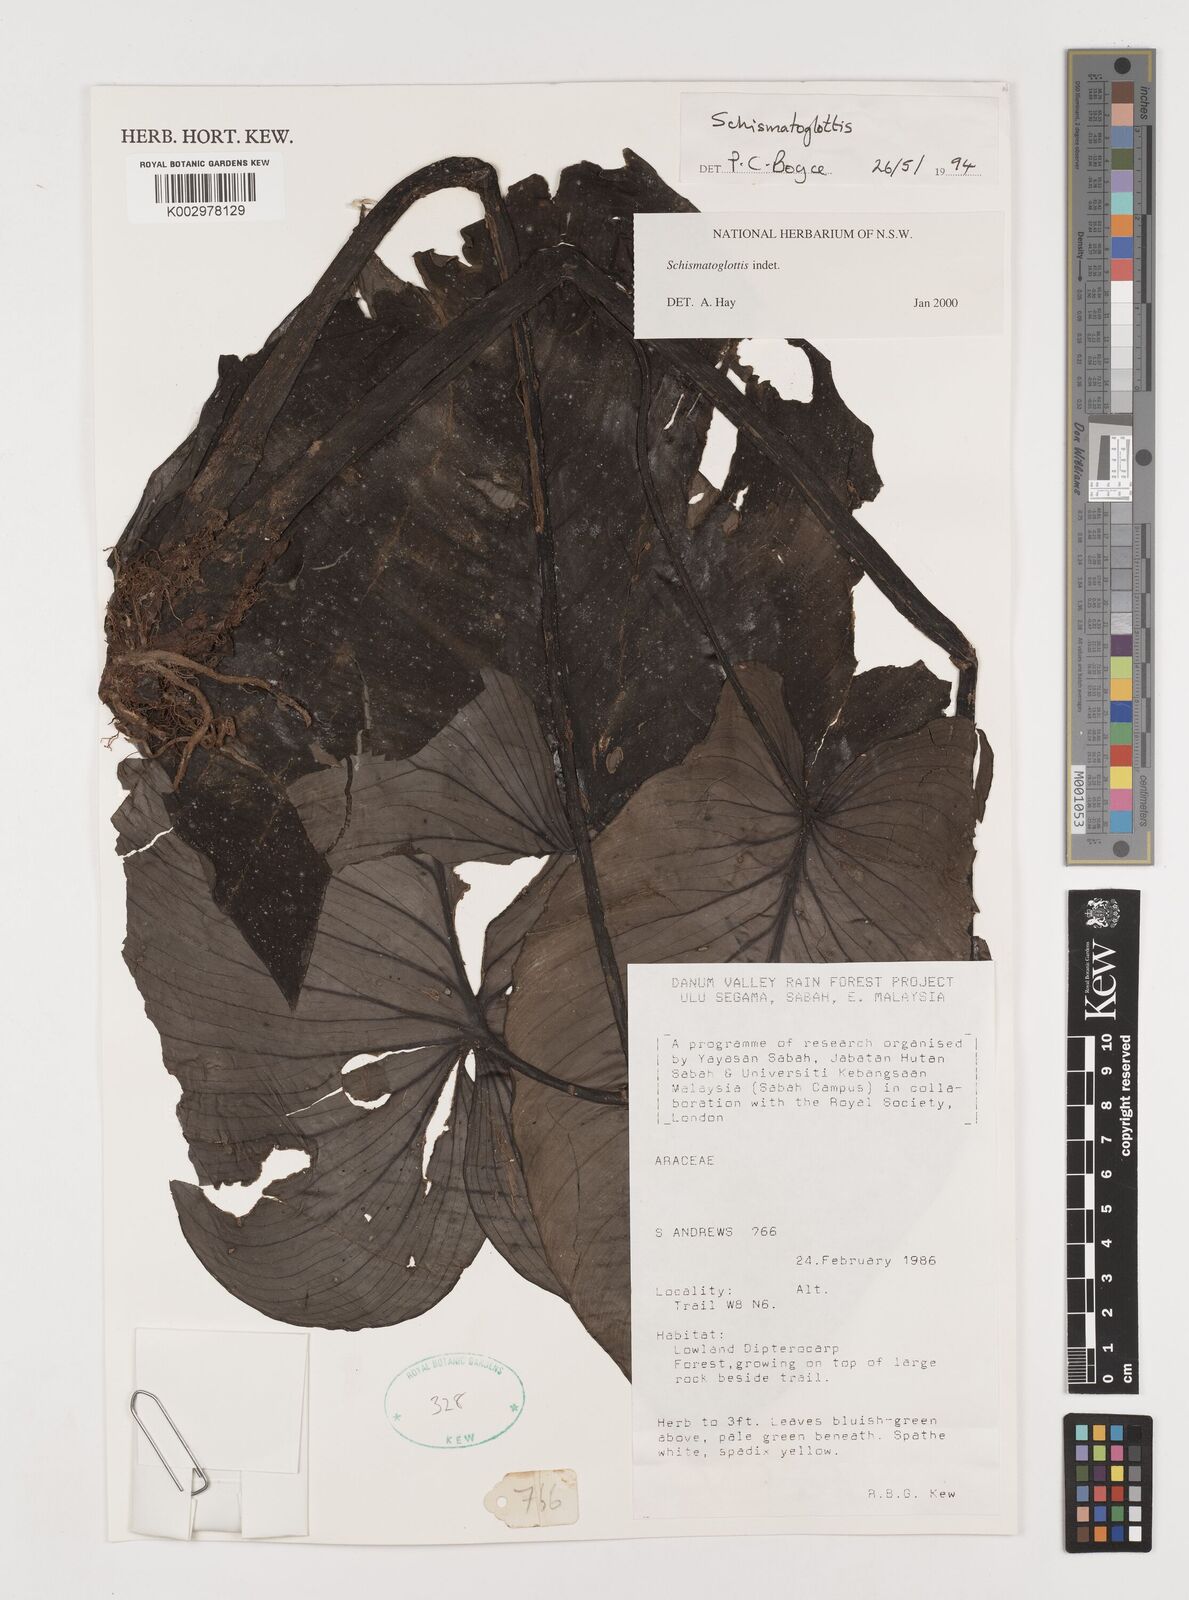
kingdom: Plantae
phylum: Tracheophyta
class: Liliopsida
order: Alismatales
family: Araceae
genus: Schismatoglottis
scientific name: Schismatoglottis
